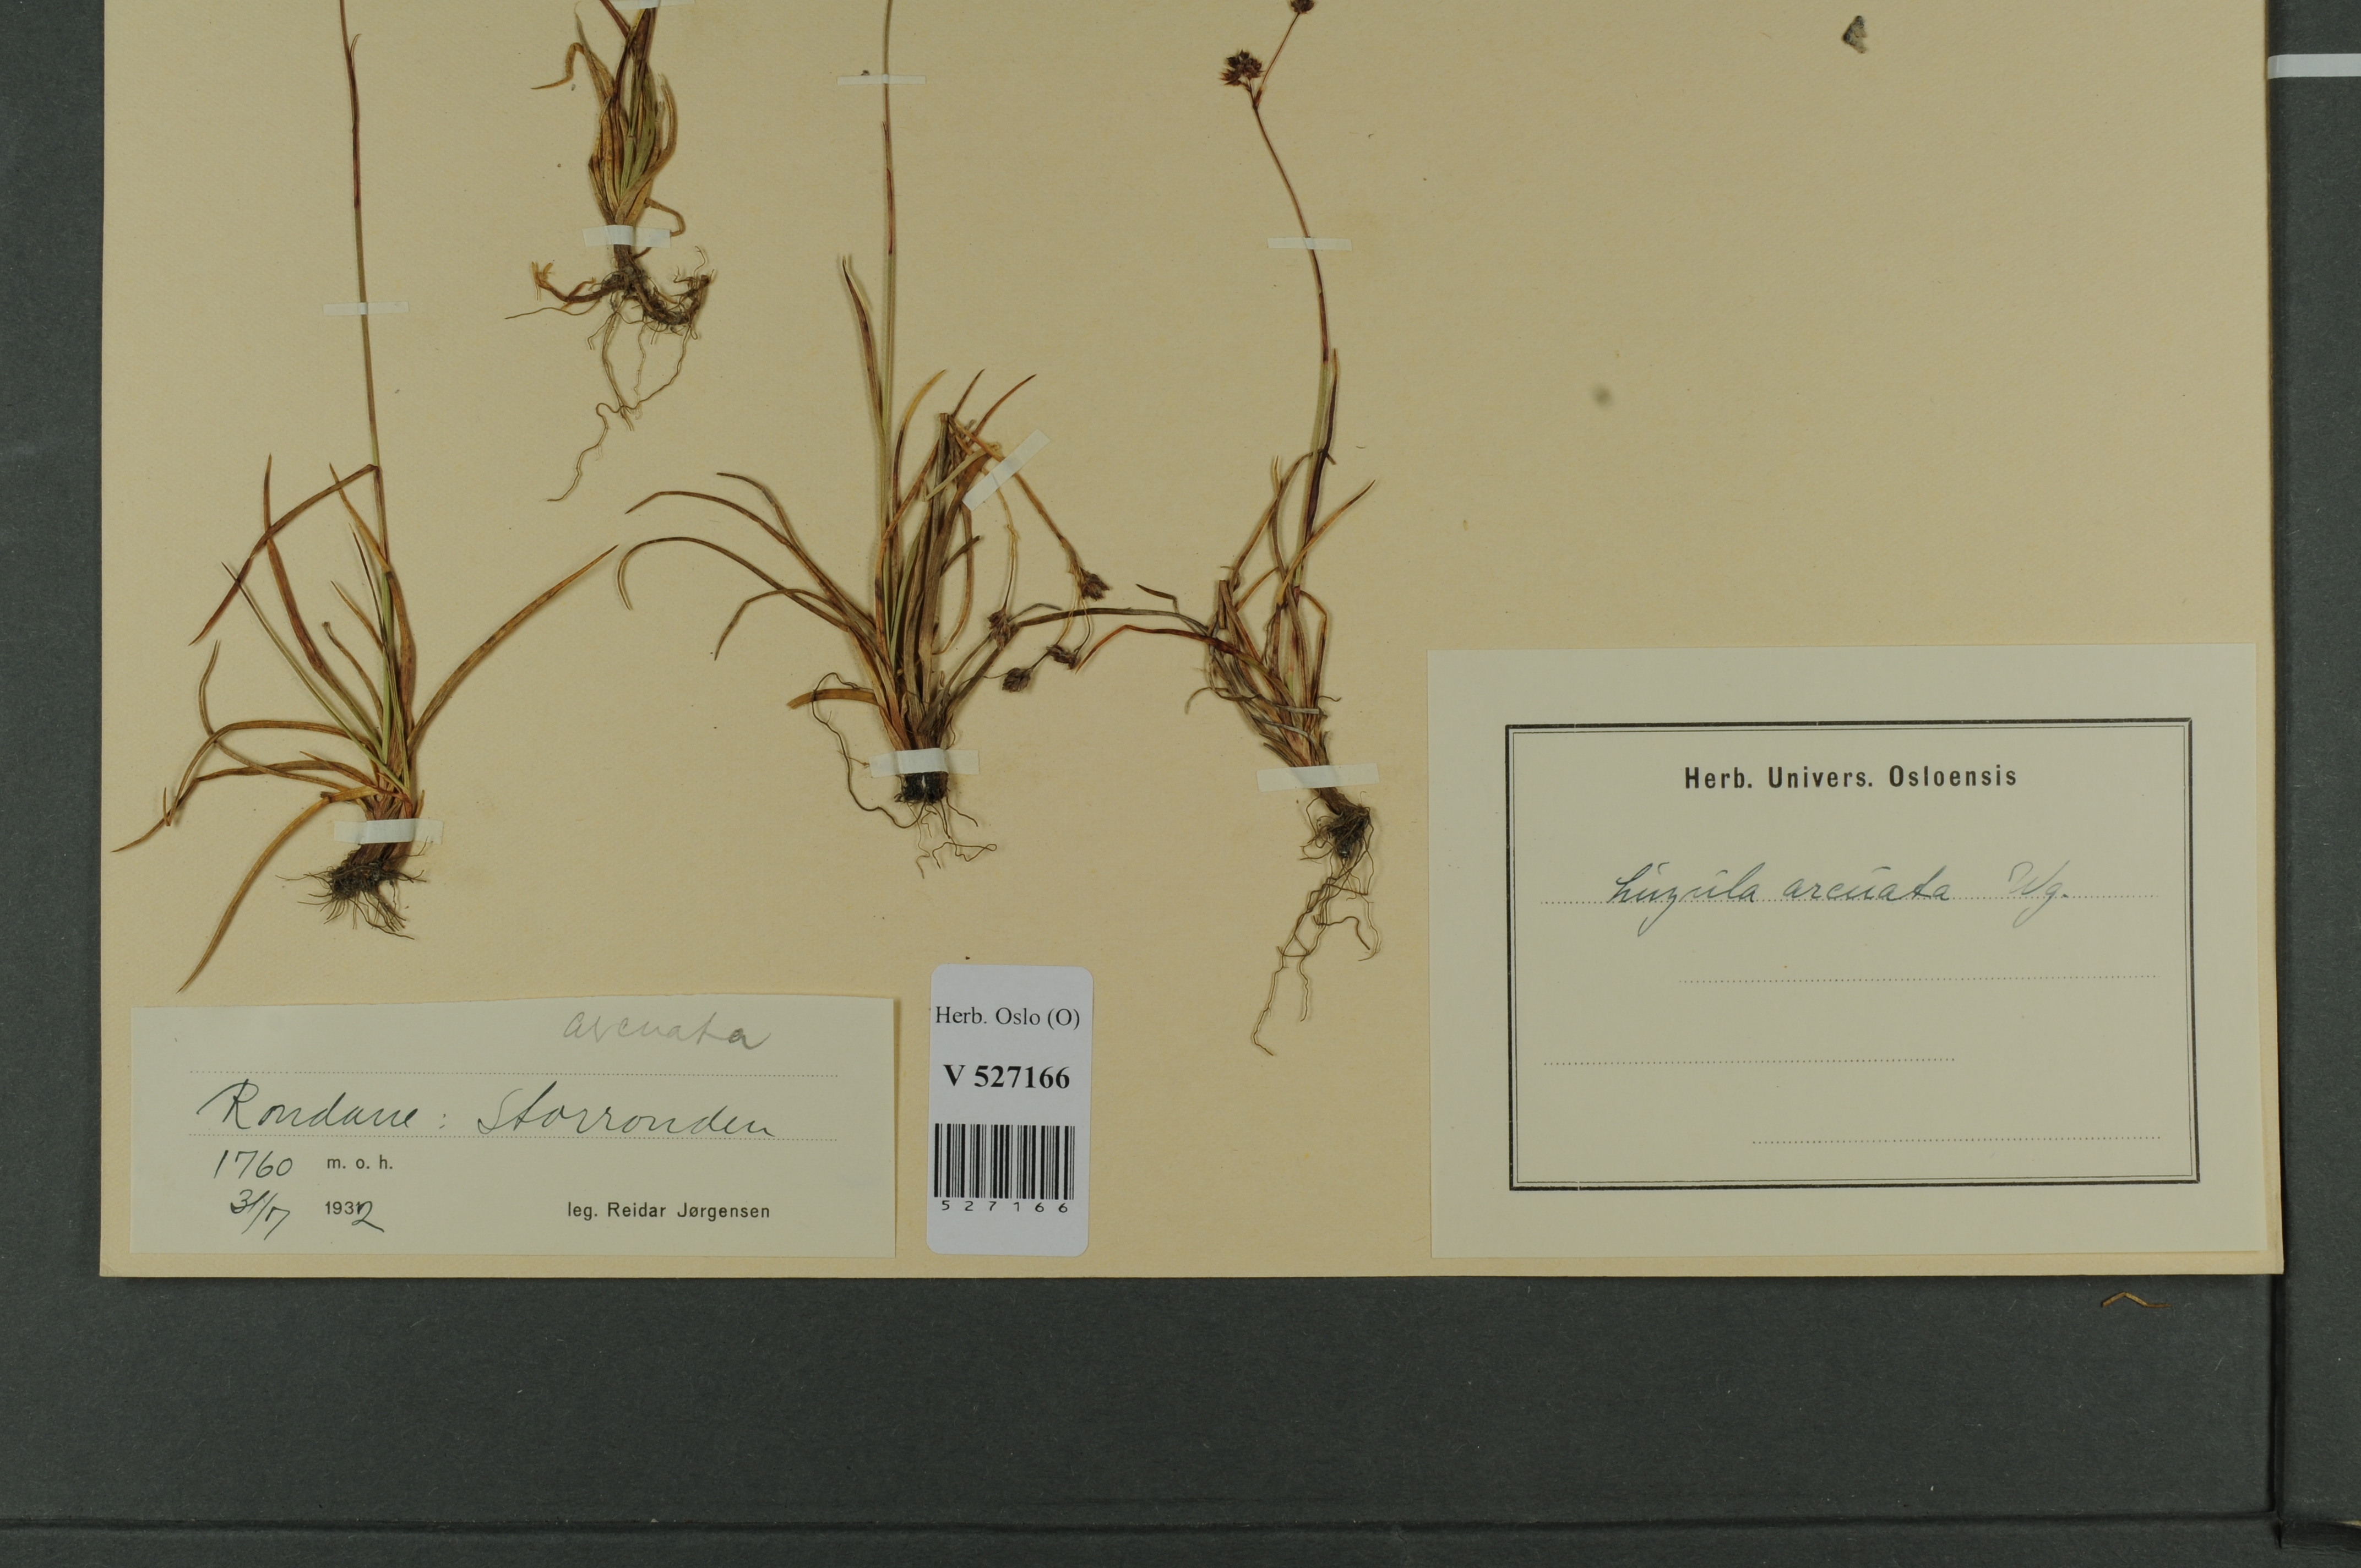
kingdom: Plantae
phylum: Tracheophyta
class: Liliopsida
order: Poales
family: Juncaceae
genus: Luzula
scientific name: Luzula arcuata
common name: Curved wood-rush
